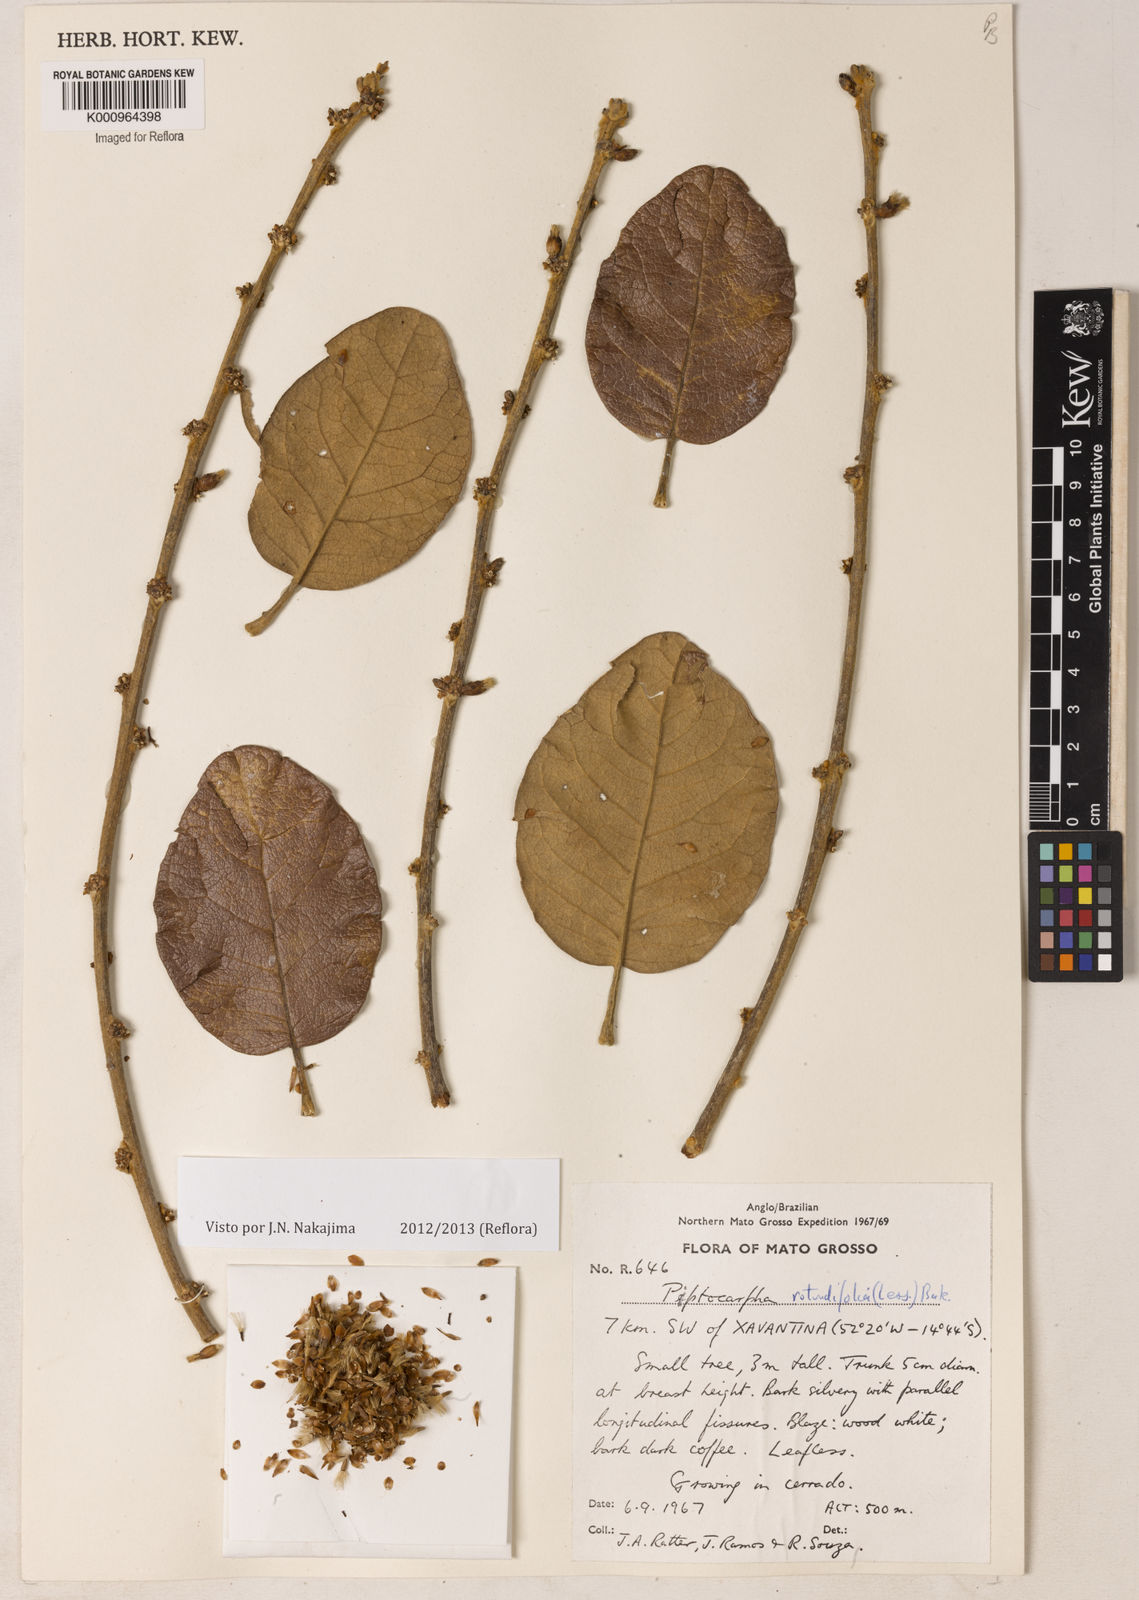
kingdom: Plantae
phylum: Tracheophyta
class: Magnoliopsida
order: Asterales
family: Asteraceae
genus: Piptocarpha
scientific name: Piptocarpha rotundifolia
